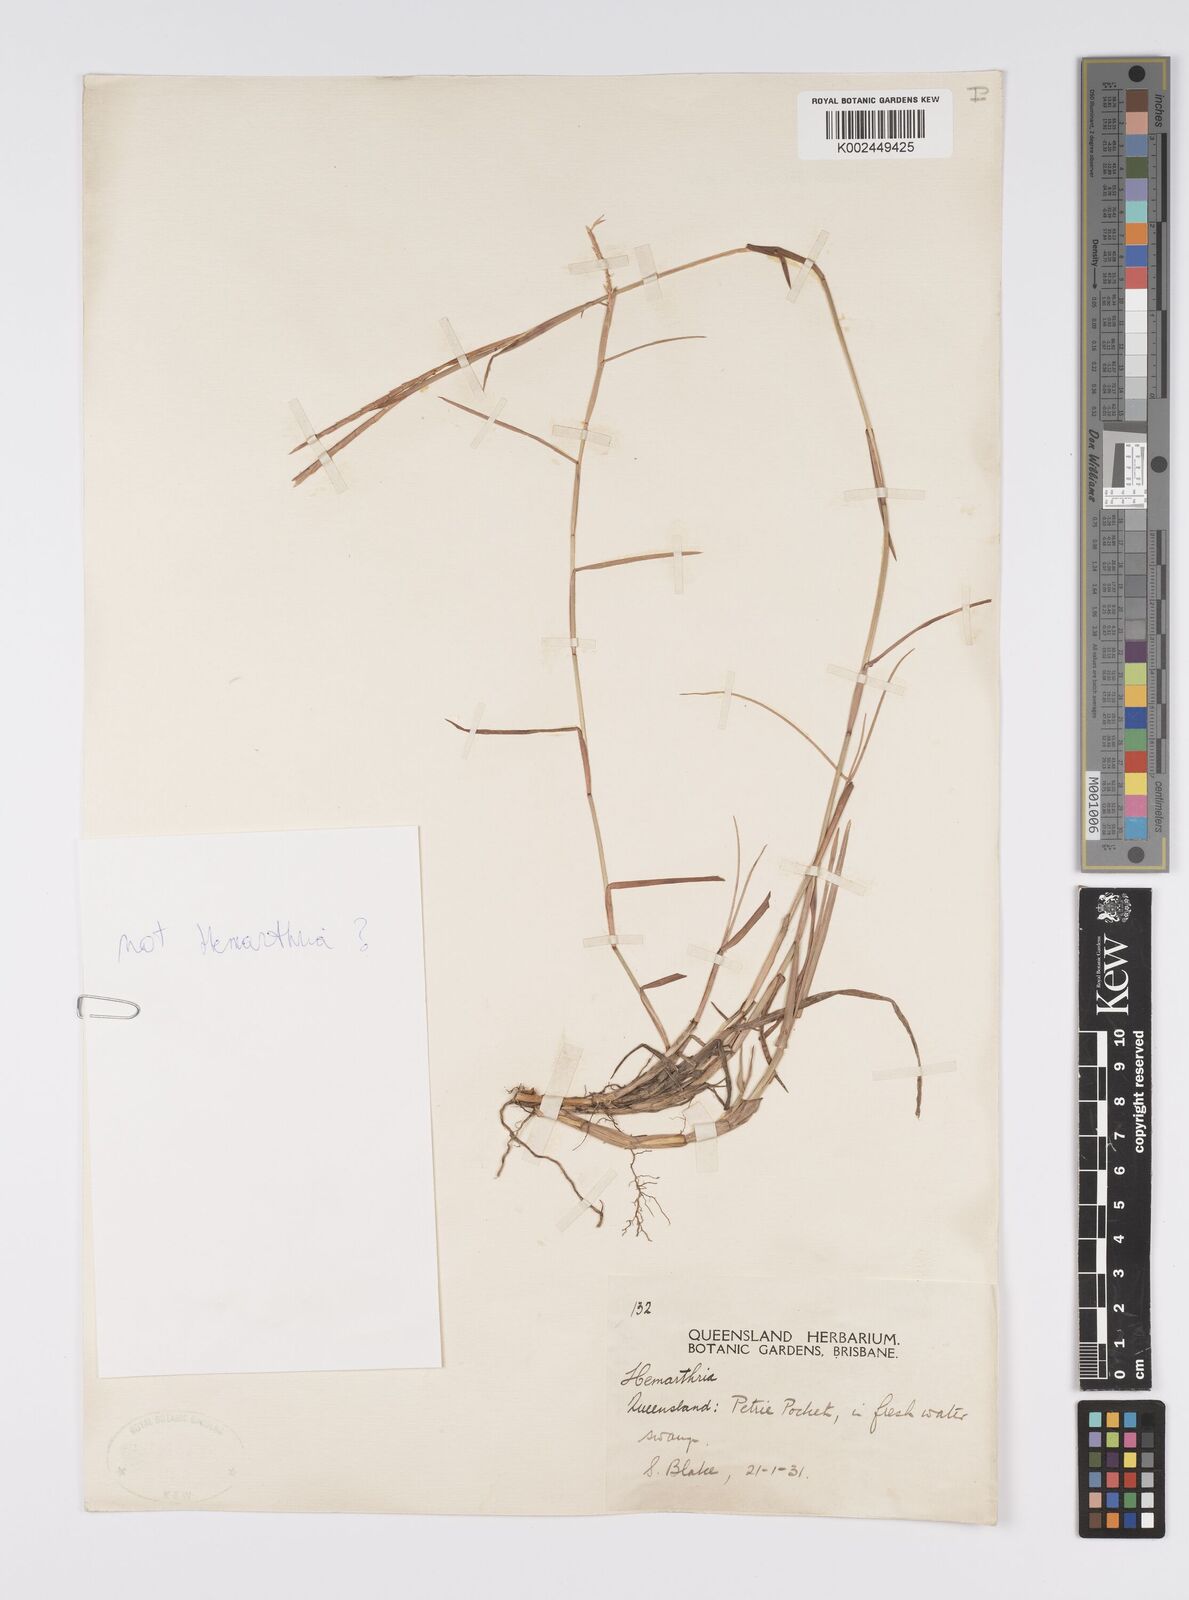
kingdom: Plantae
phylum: Tracheophyta
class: Liliopsida
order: Poales
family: Poaceae
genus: Hemarthria
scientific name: Hemarthria
